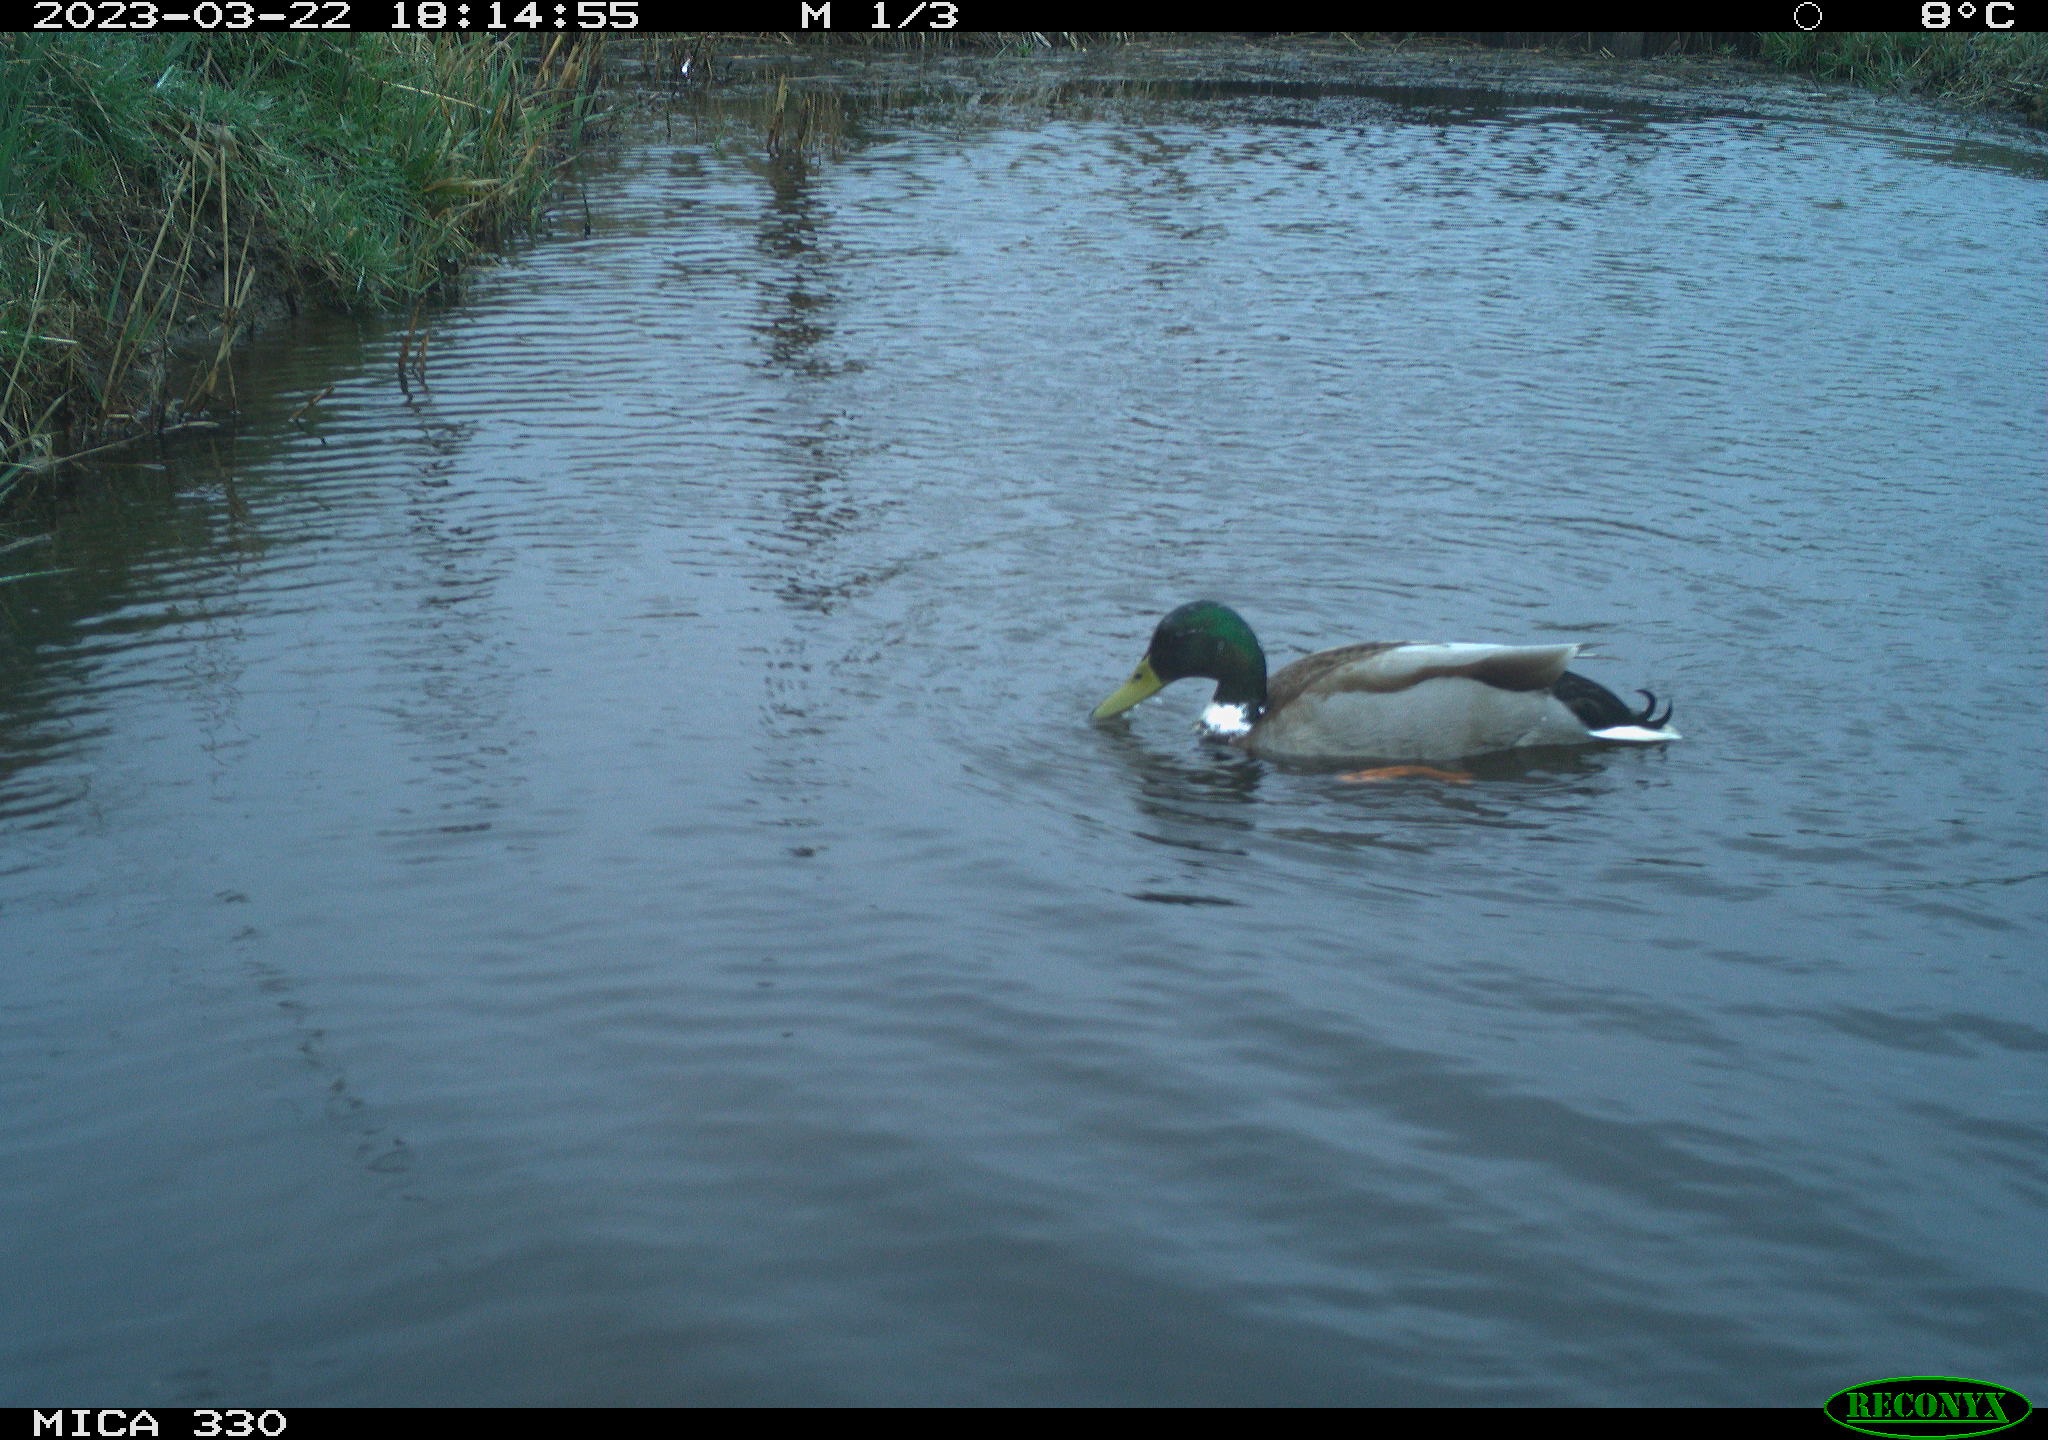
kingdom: Animalia
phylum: Chordata
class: Aves
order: Anseriformes
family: Anatidae
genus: Anas
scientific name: Anas
